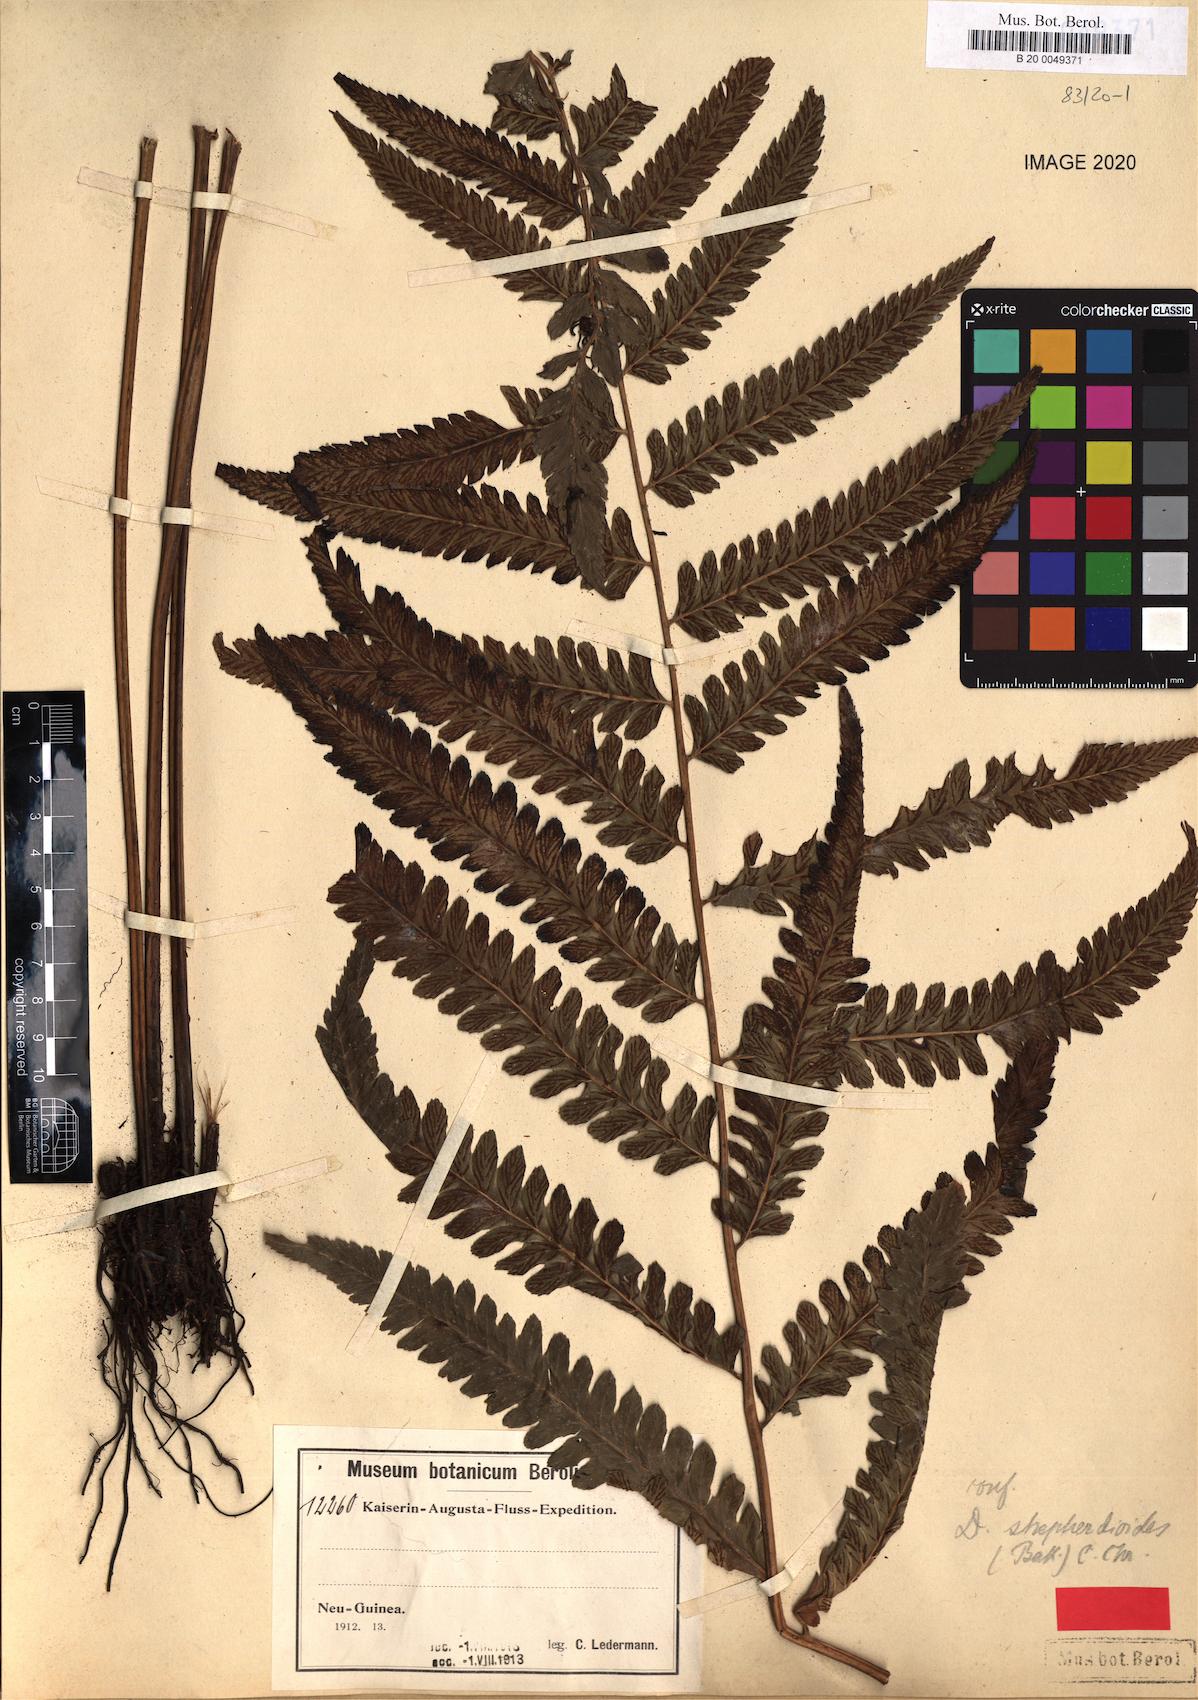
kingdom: Plantae
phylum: Tracheophyta
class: Polypodiopsida
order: Polypodiales
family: Athyriaceae
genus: Diplazium
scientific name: Diplazium pseudoshepherdioides
